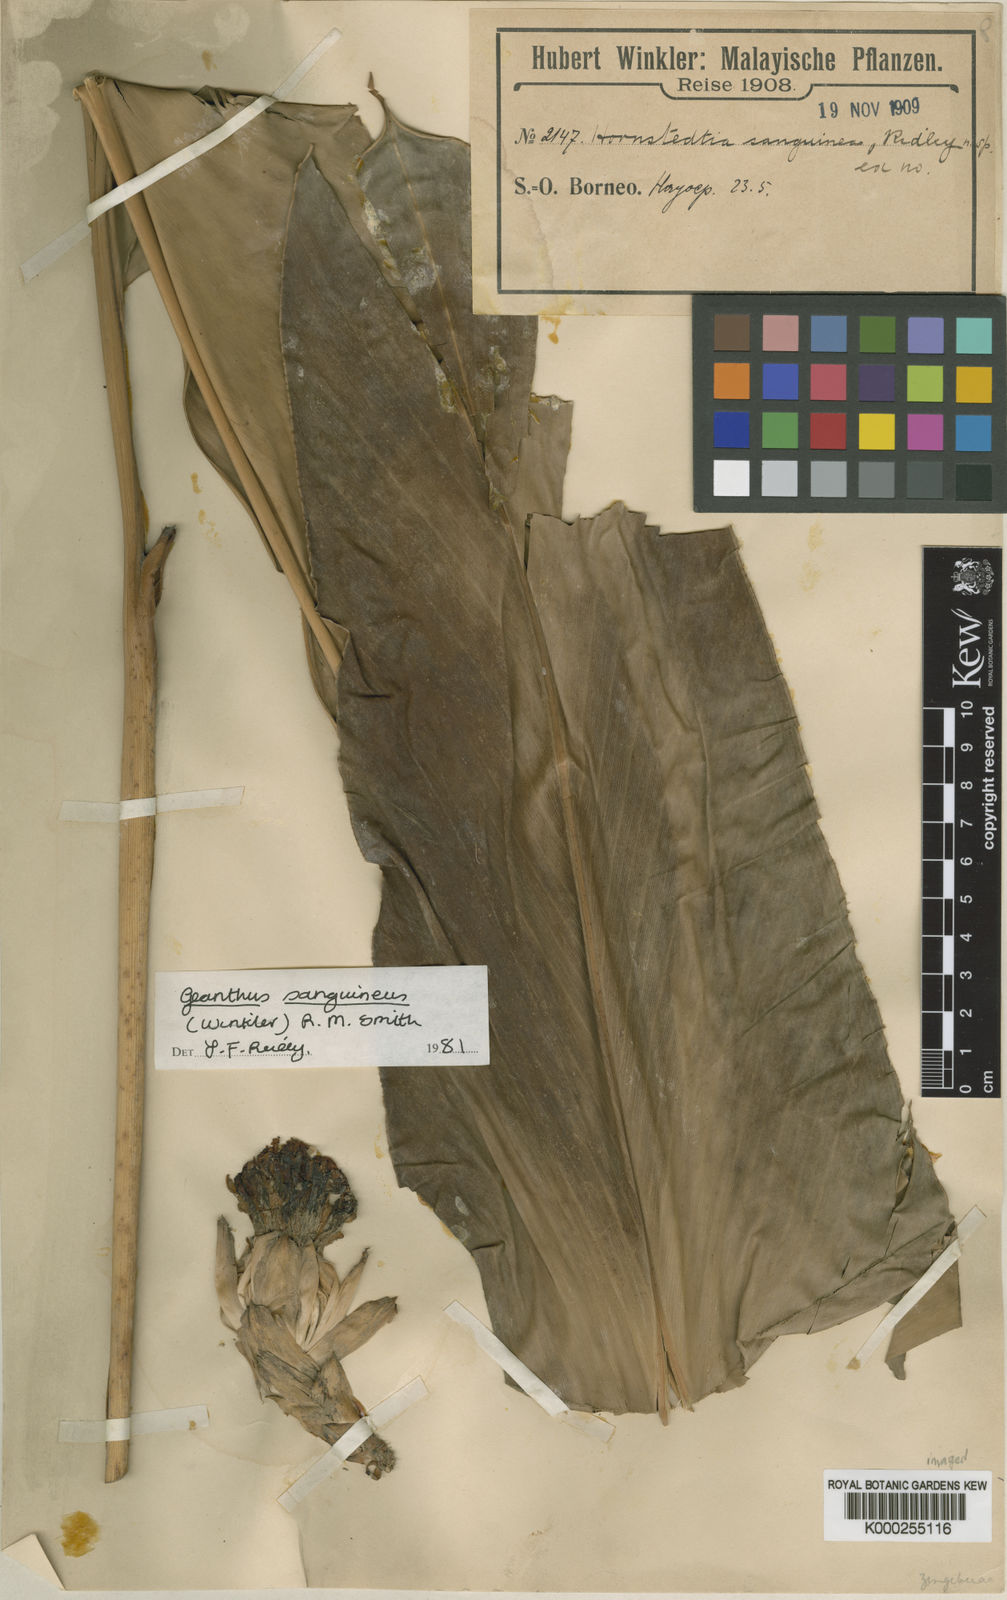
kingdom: Plantae
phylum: Tracheophyta
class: Liliopsida
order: Zingiberales
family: Zingiberaceae
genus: Etlingera
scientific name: Etlingera sanguinea
